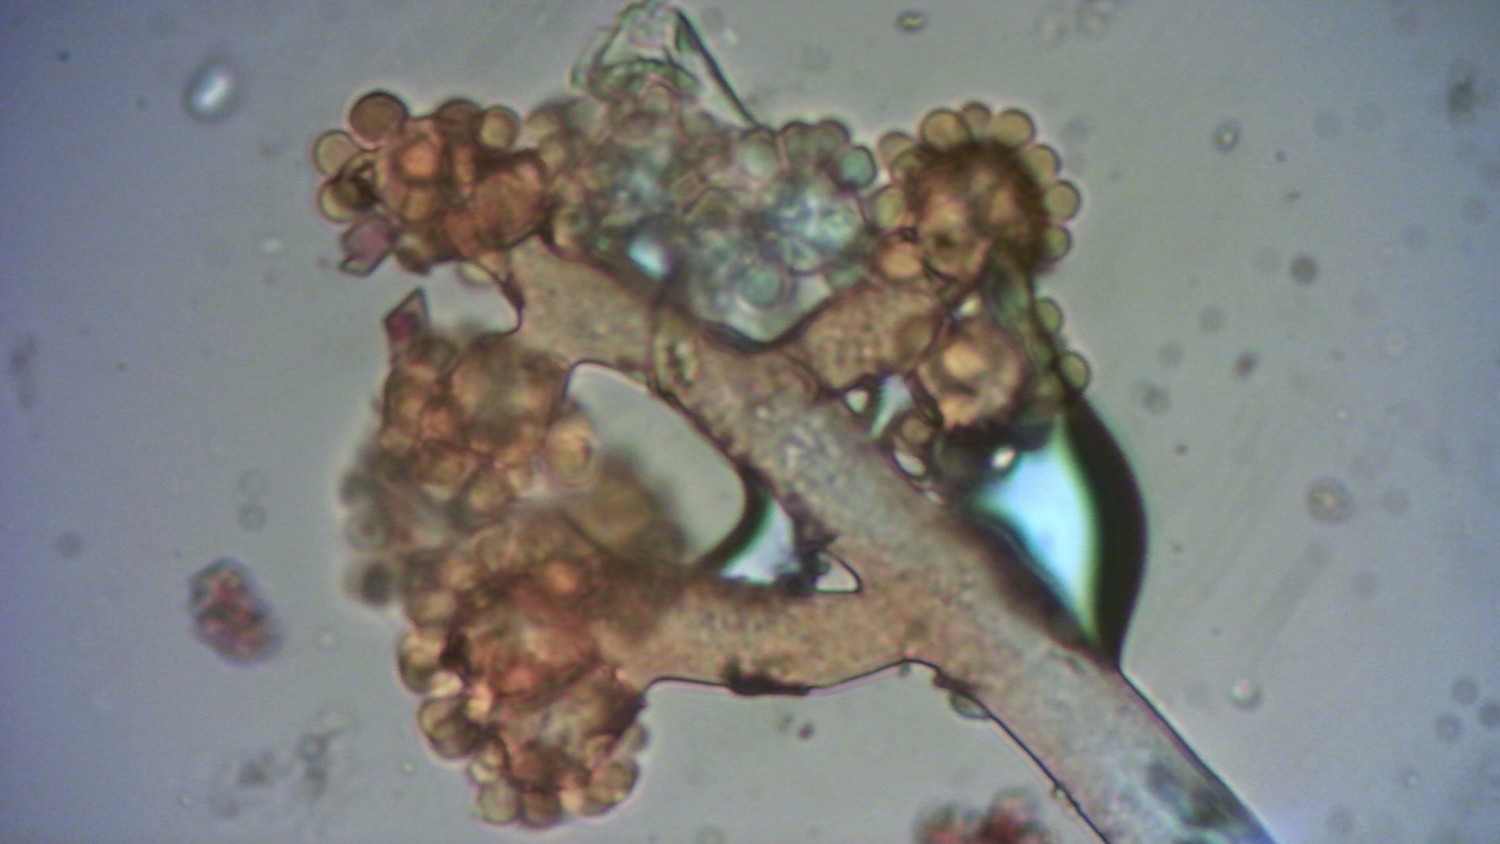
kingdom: Fungi
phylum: Ascomycota
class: Leotiomycetes
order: Helotiales
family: Sclerotiniaceae
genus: Botrytis
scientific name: Botrytis cinerea
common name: Grey mould
